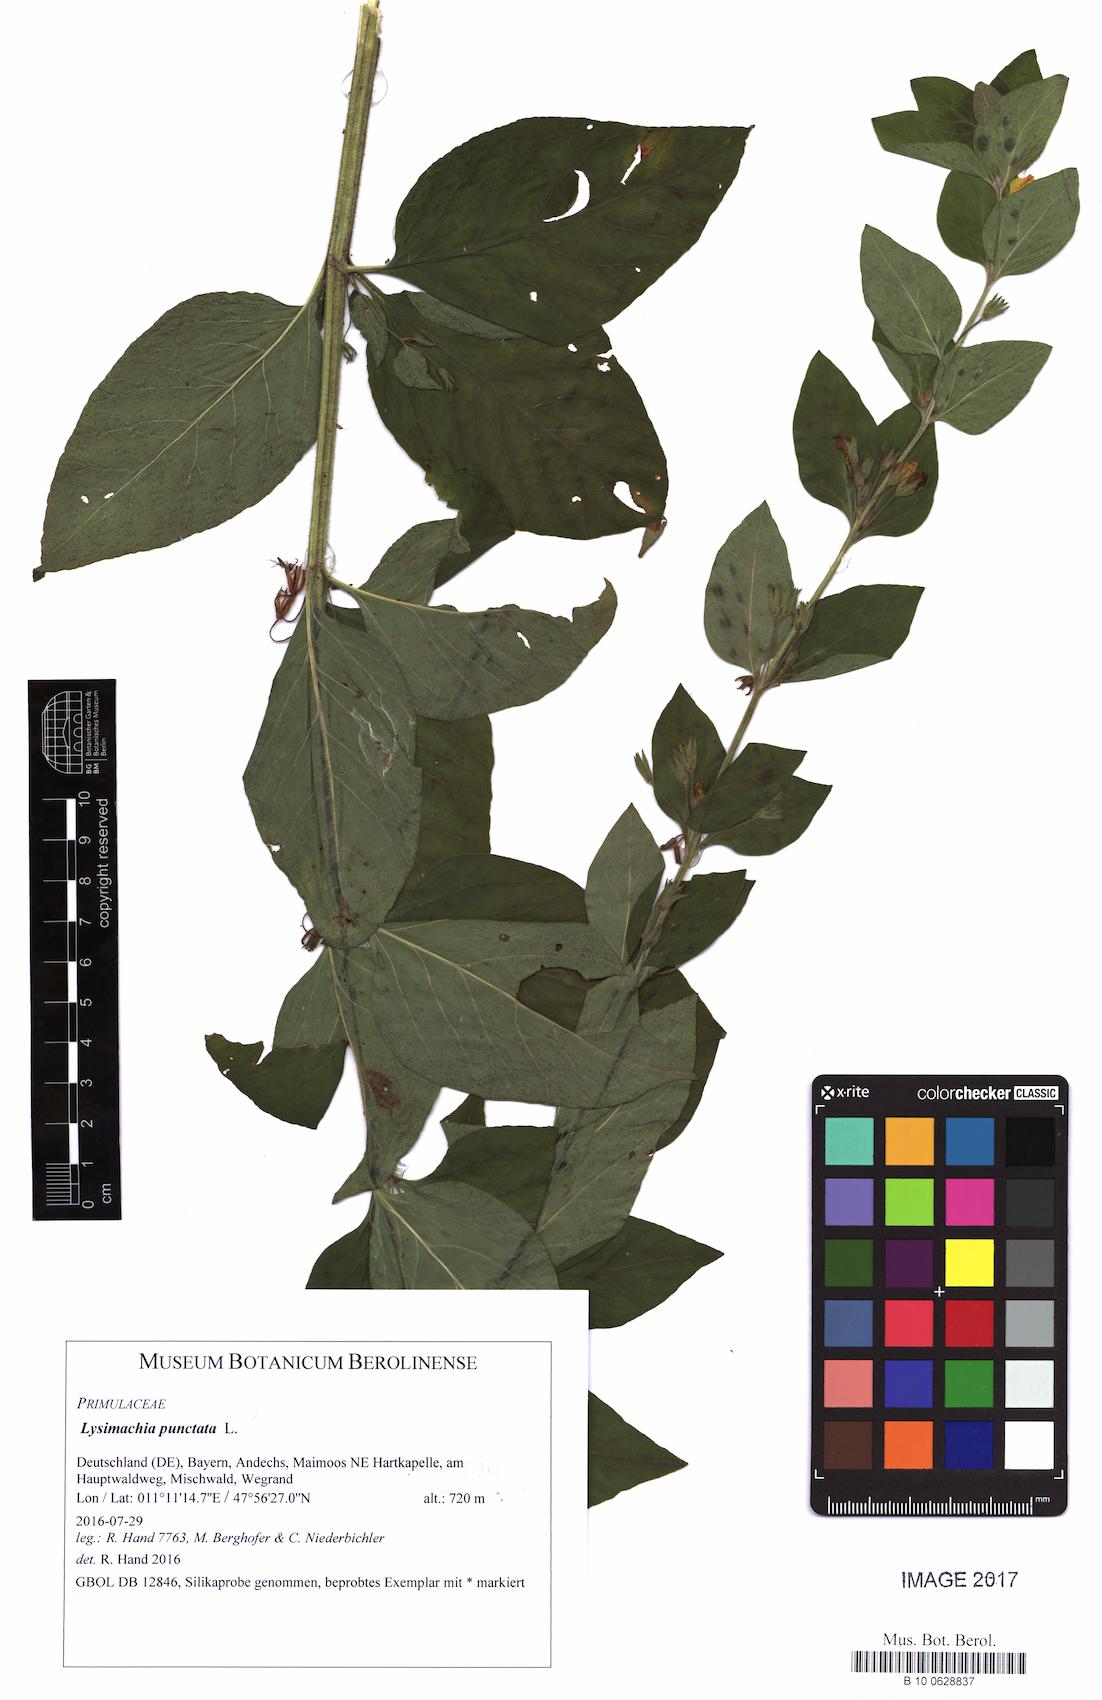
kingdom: Plantae
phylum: Tracheophyta
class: Magnoliopsida
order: Ericales
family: Primulaceae
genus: Lysimachia
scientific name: Lysimachia punctata
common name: Dotted loosestrife
